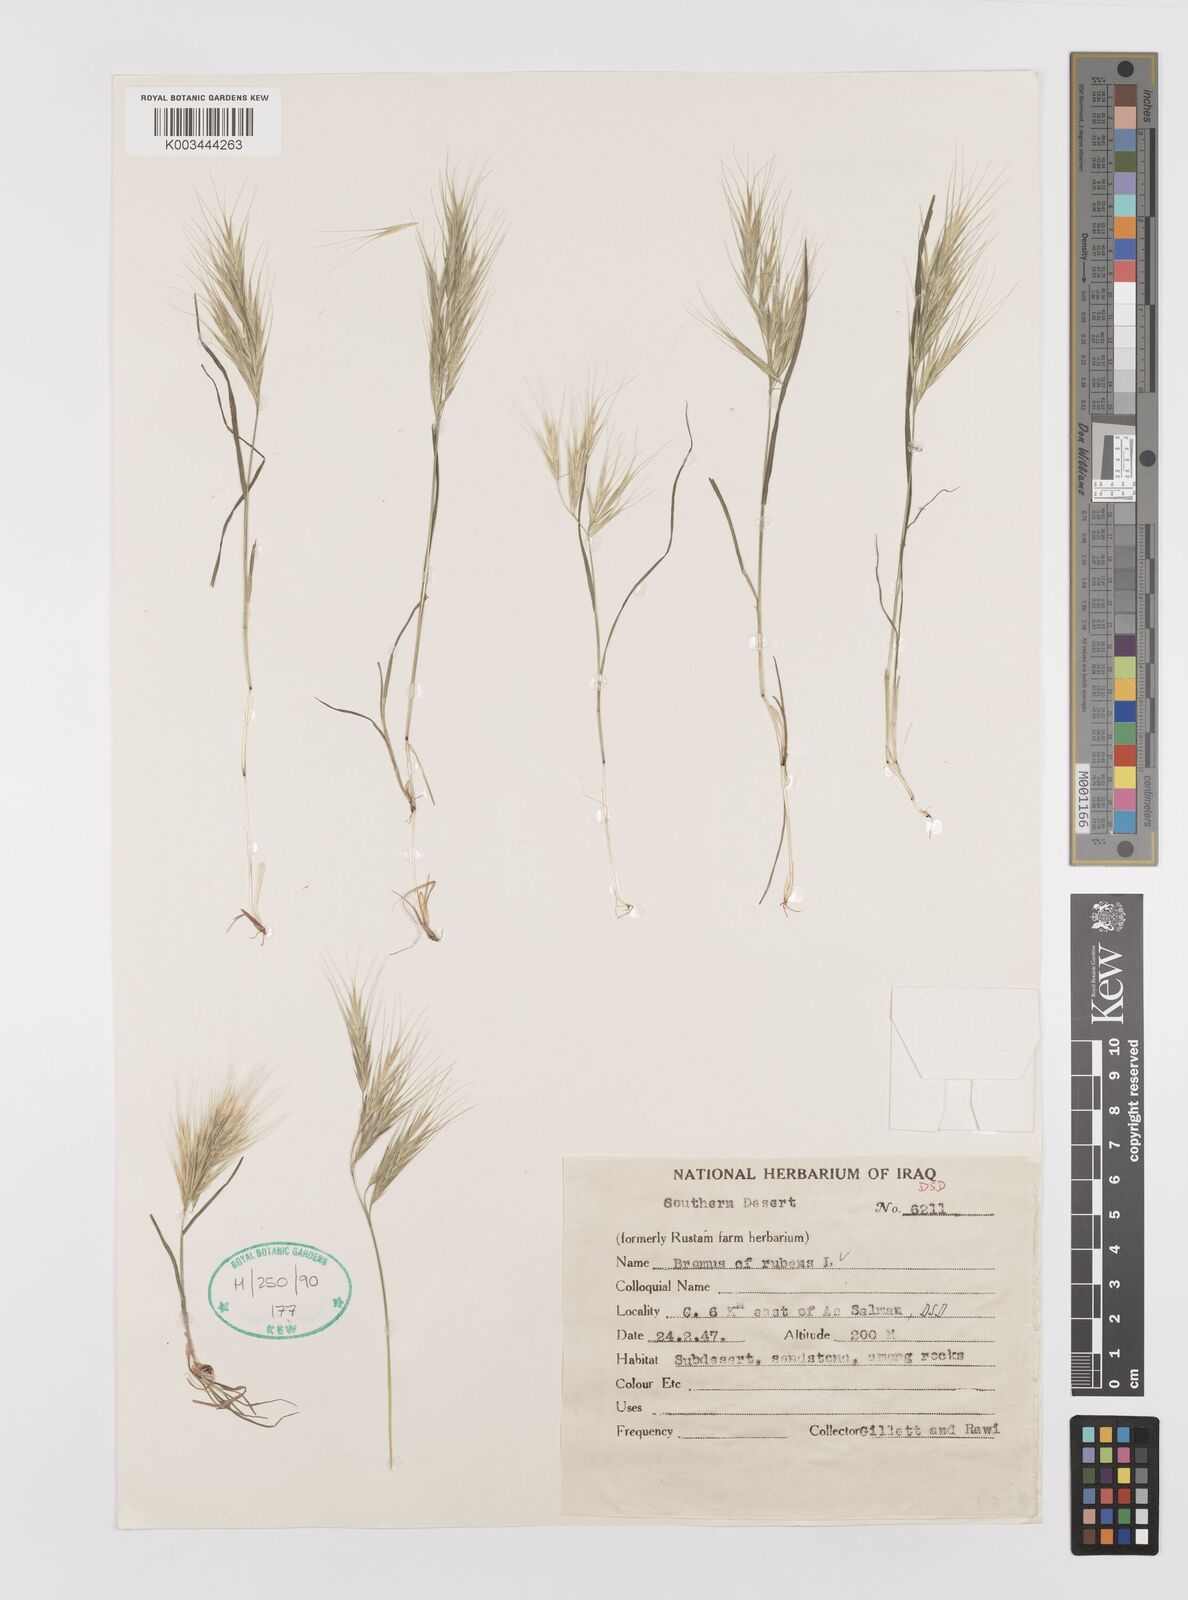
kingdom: Plantae
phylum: Tracheophyta
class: Liliopsida
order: Poales
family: Poaceae
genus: Bromus
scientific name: Bromus madritensis
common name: Compact brome
